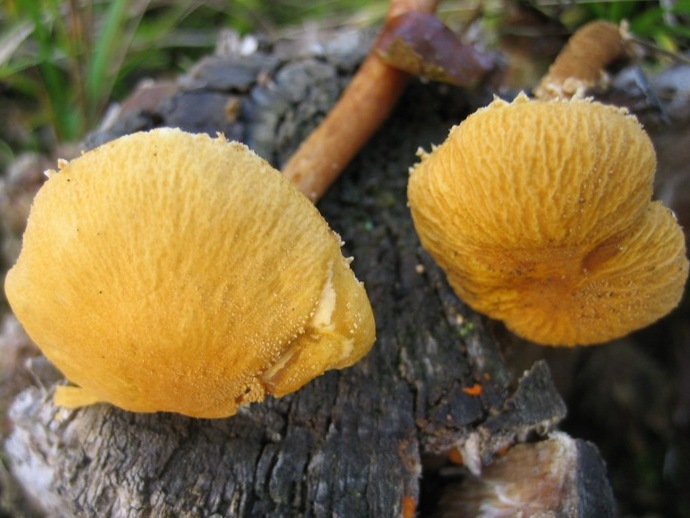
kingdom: Fungi
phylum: Basidiomycota
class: Agaricomycetes
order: Agaricales
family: Tricholomataceae
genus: Cystoderma
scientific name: Cystoderma amianthinum
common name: okkergul grynhat
